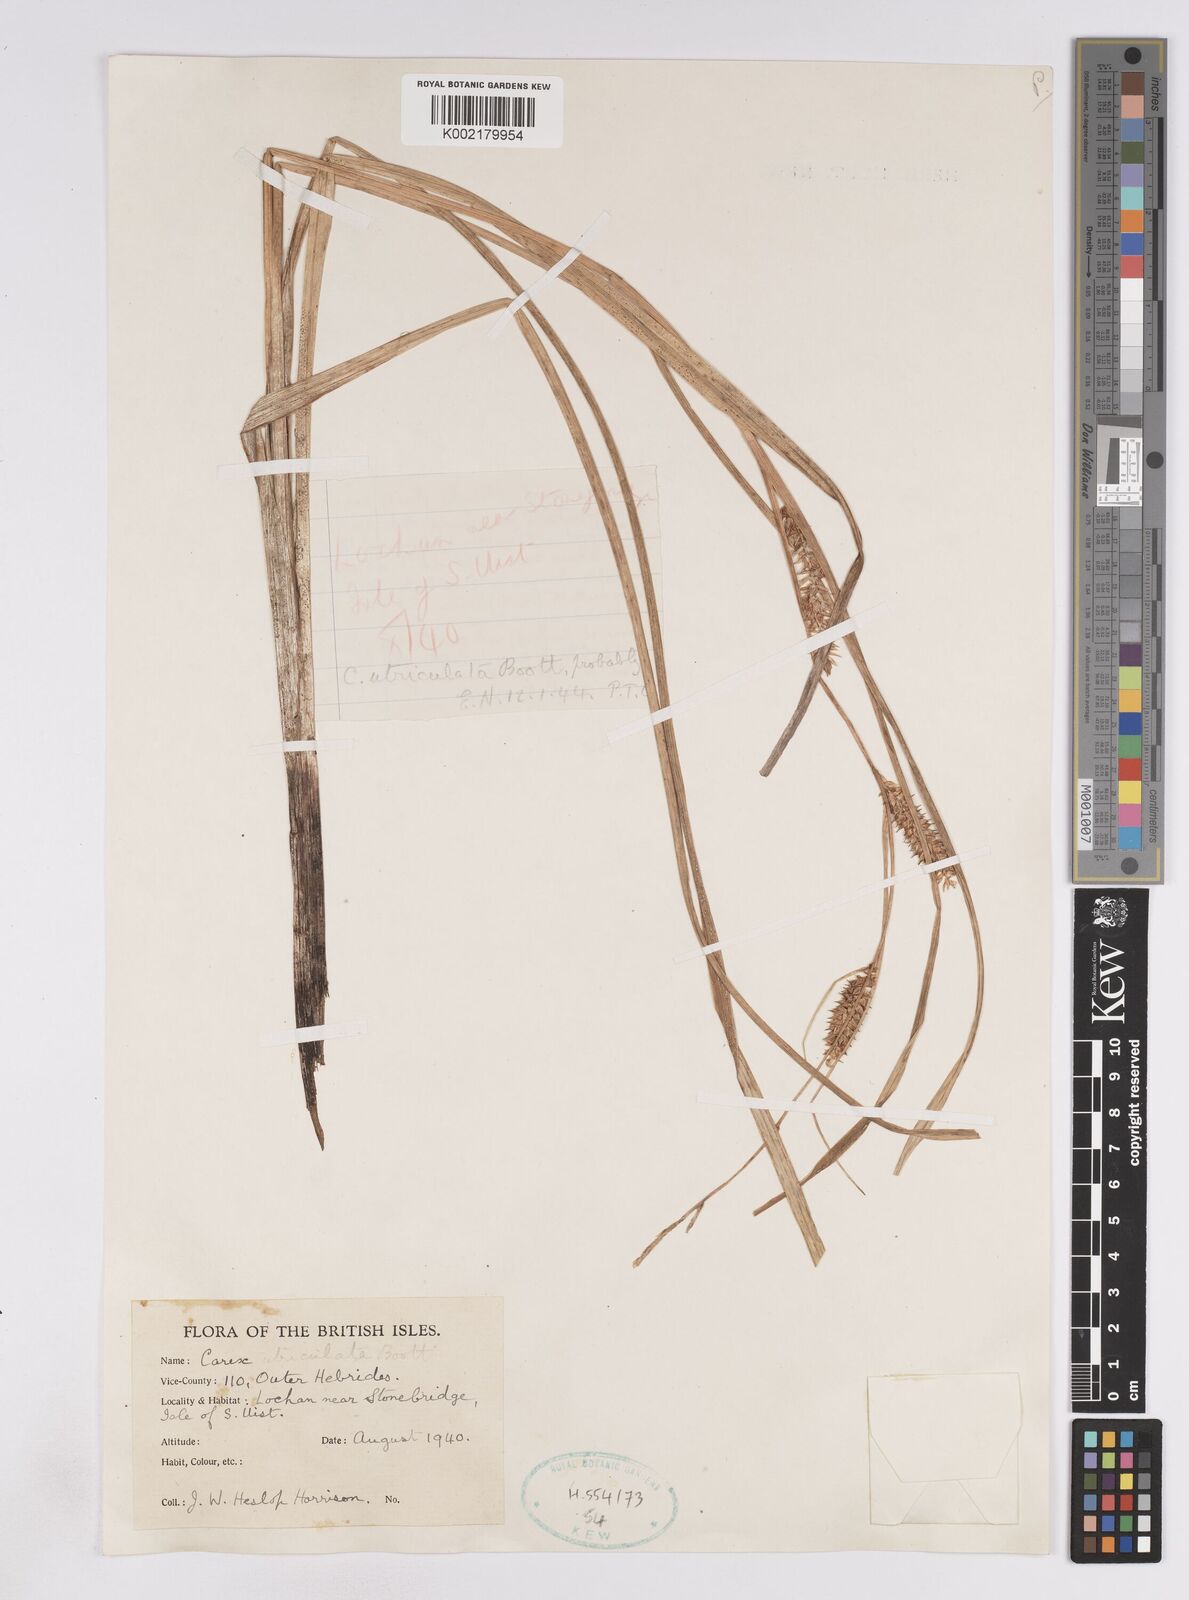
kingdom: Plantae
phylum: Tracheophyta
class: Liliopsida
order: Poales
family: Cyperaceae
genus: Carex
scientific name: Carex utriculata
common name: Beaked sedge
